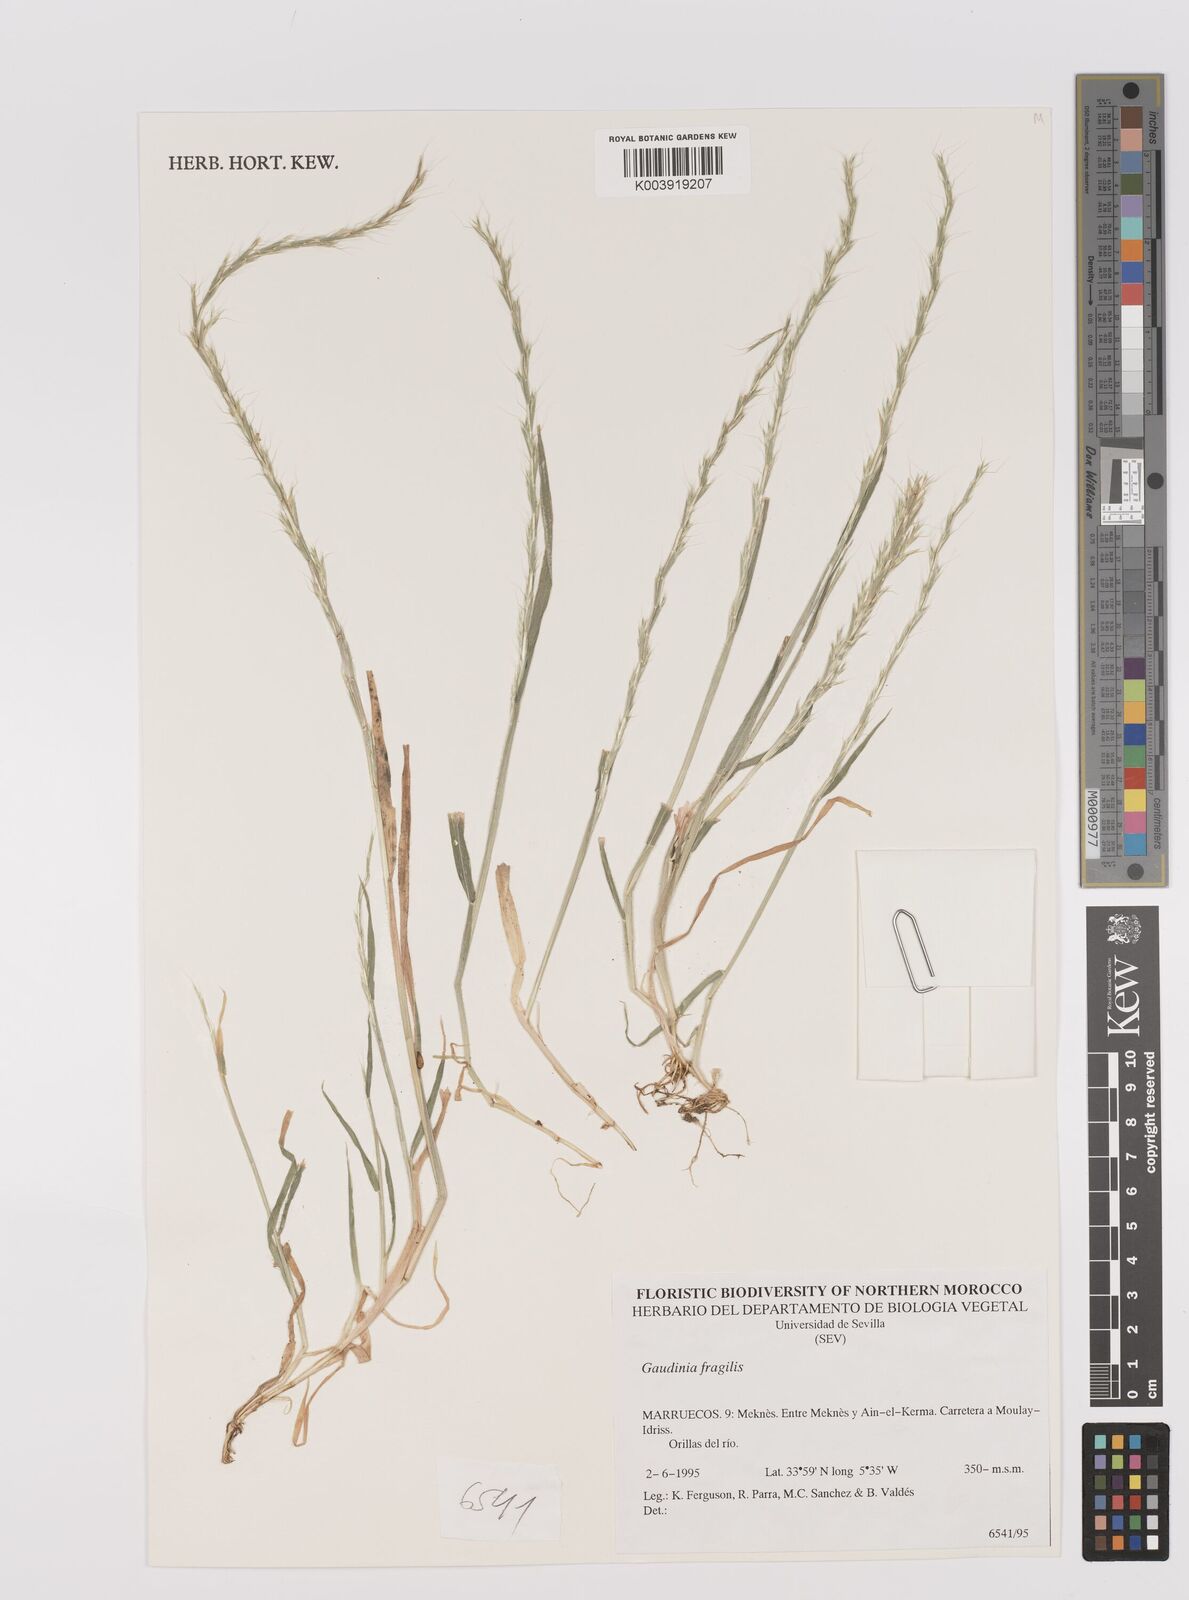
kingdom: Plantae
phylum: Tracheophyta
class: Liliopsida
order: Poales
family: Poaceae
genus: Gaudinia
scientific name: Gaudinia fragilis
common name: French oat-grass
